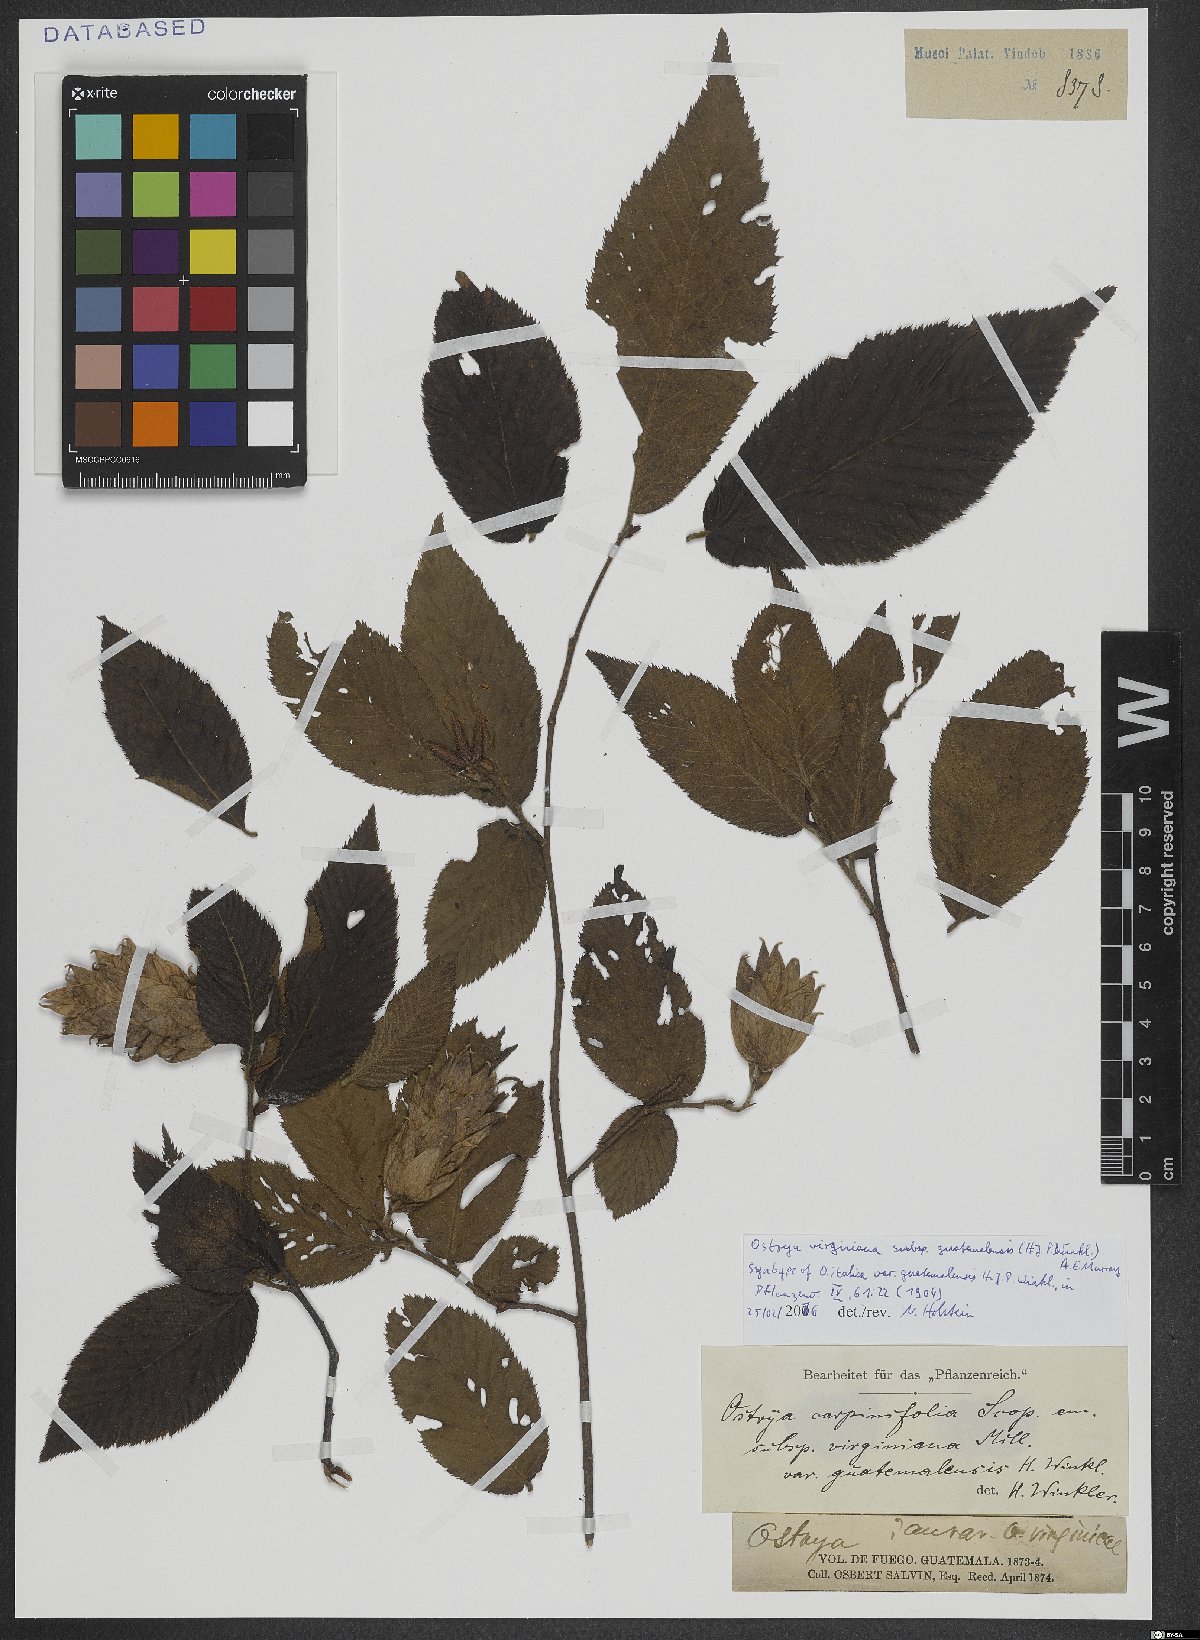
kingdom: Plantae
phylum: Tracheophyta
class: Magnoliopsida
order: Fagales
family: Betulaceae
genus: Ostrya
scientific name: Ostrya virginiana
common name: Ironwood
